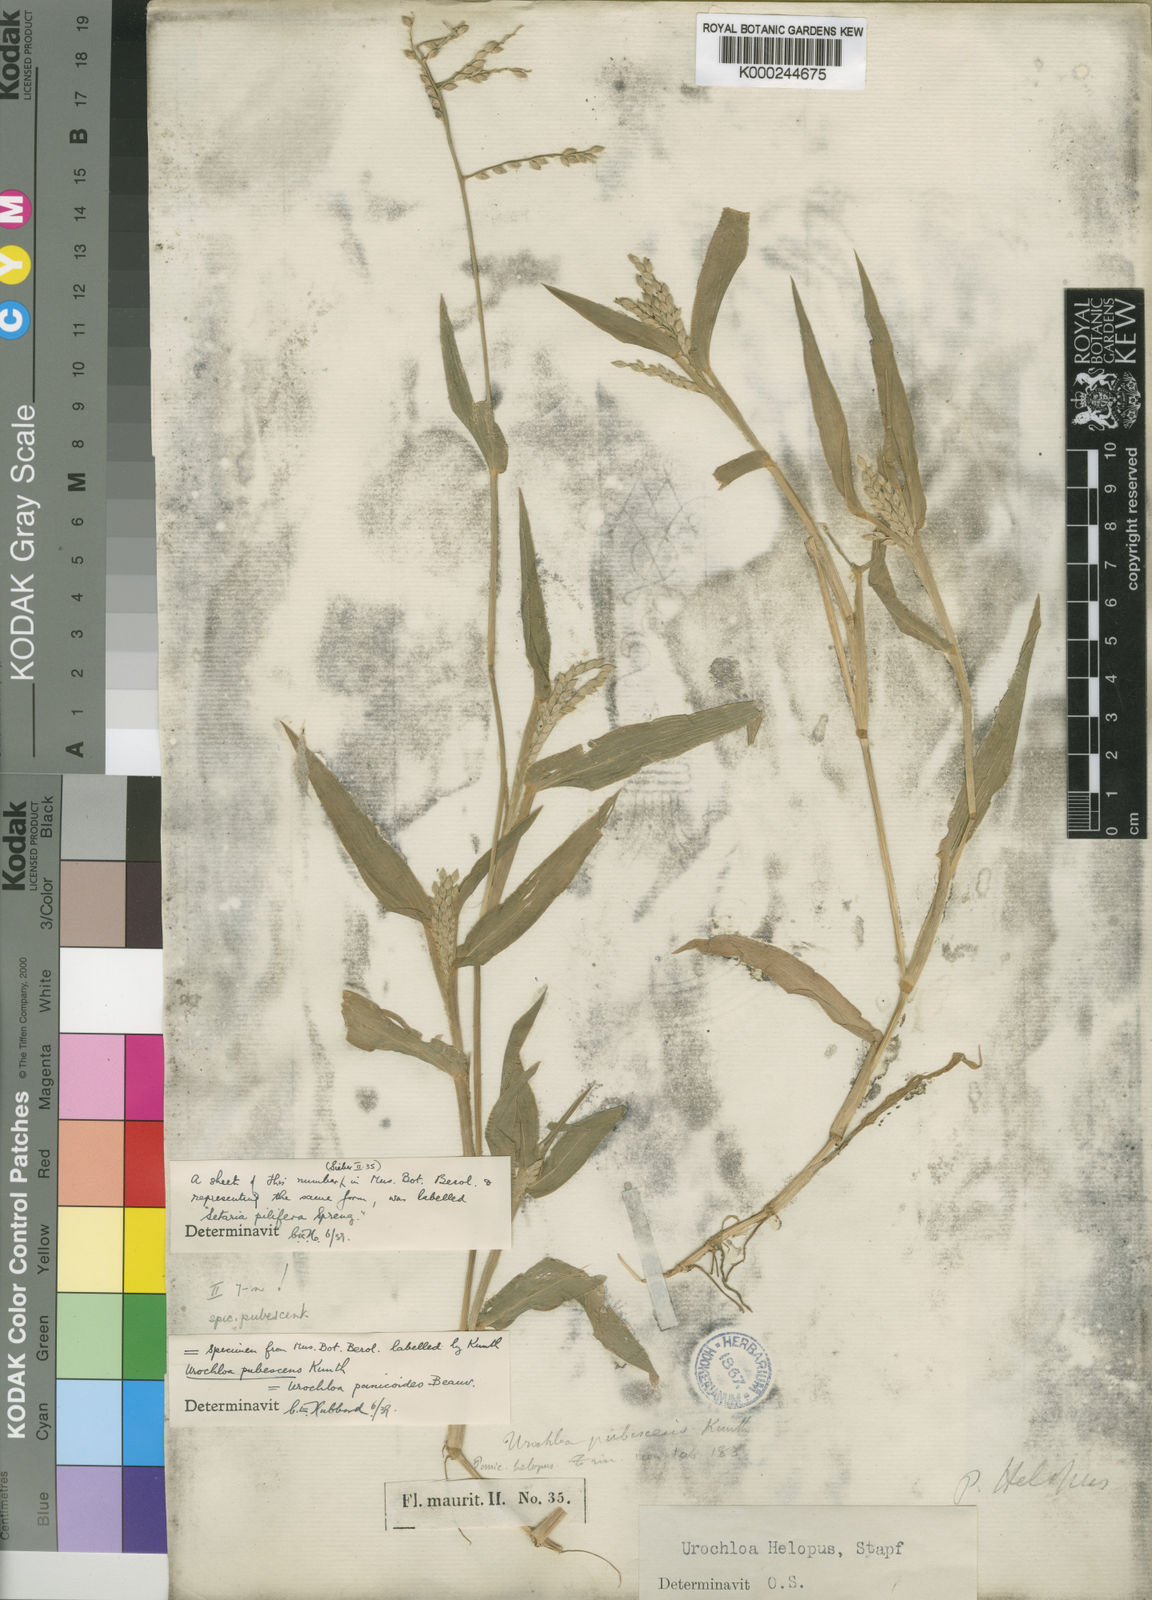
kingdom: Plantae
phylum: Tracheophyta
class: Liliopsida
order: Poales
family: Poaceae
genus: Urochloa
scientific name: Urochloa panicoides
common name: Sharp-flowered signal-grass
